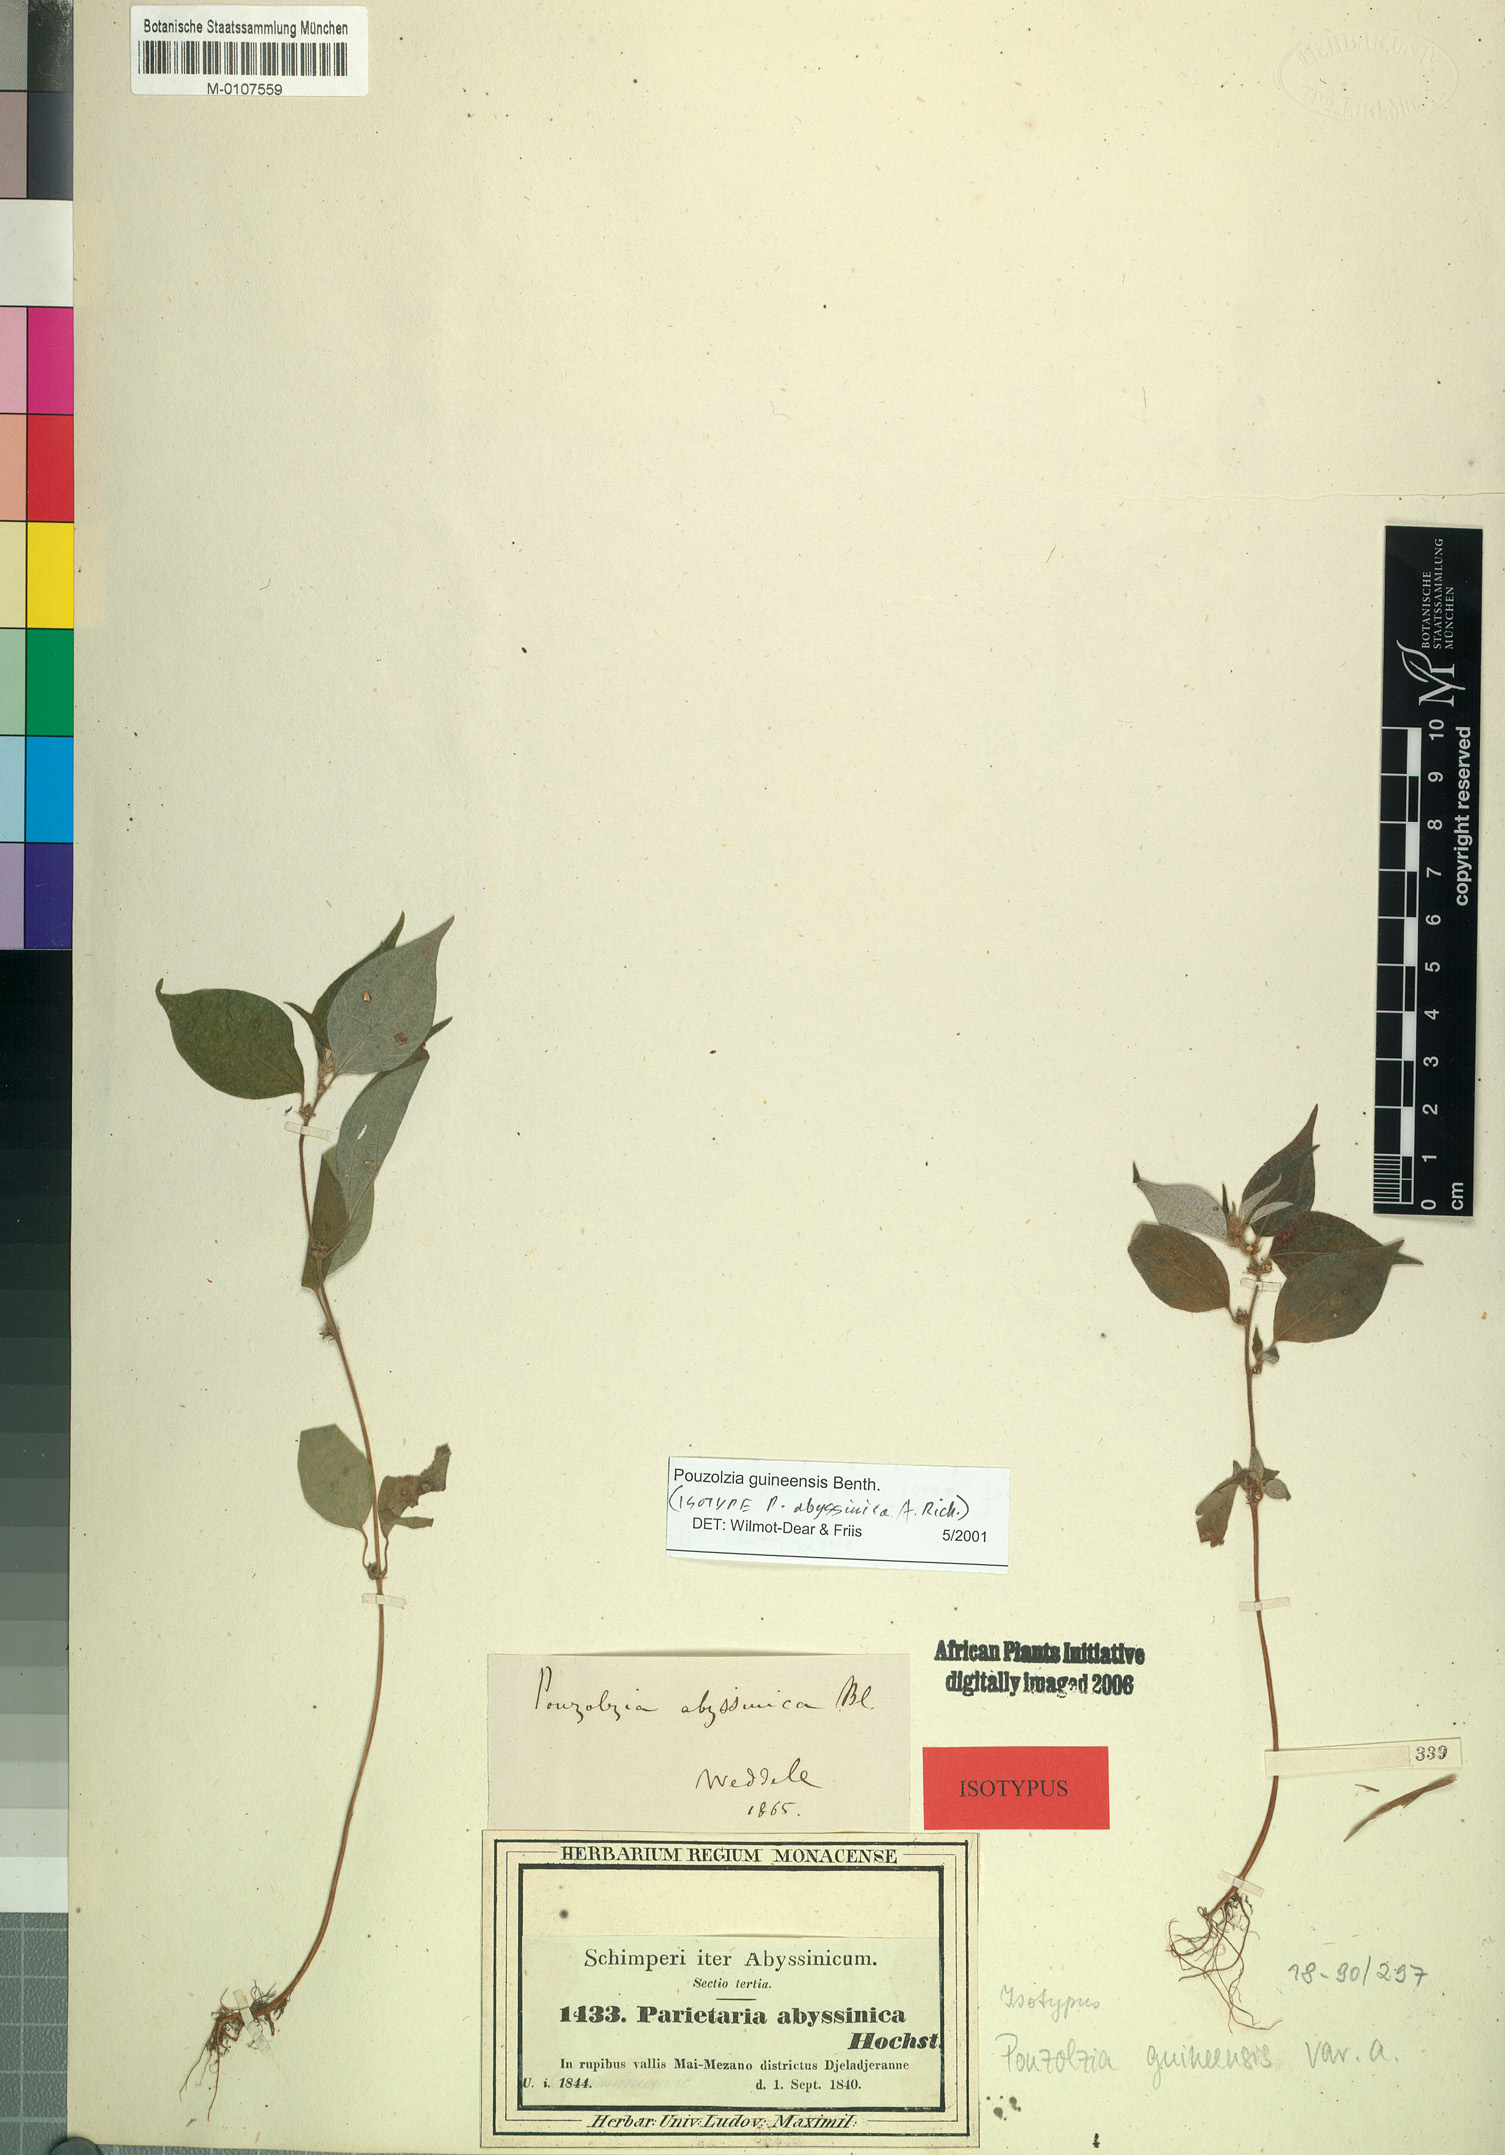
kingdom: Plantae
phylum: Tracheophyta
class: Magnoliopsida
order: Rosales
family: Urticaceae
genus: Pouzolzia
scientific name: Pouzolzia guineensis
